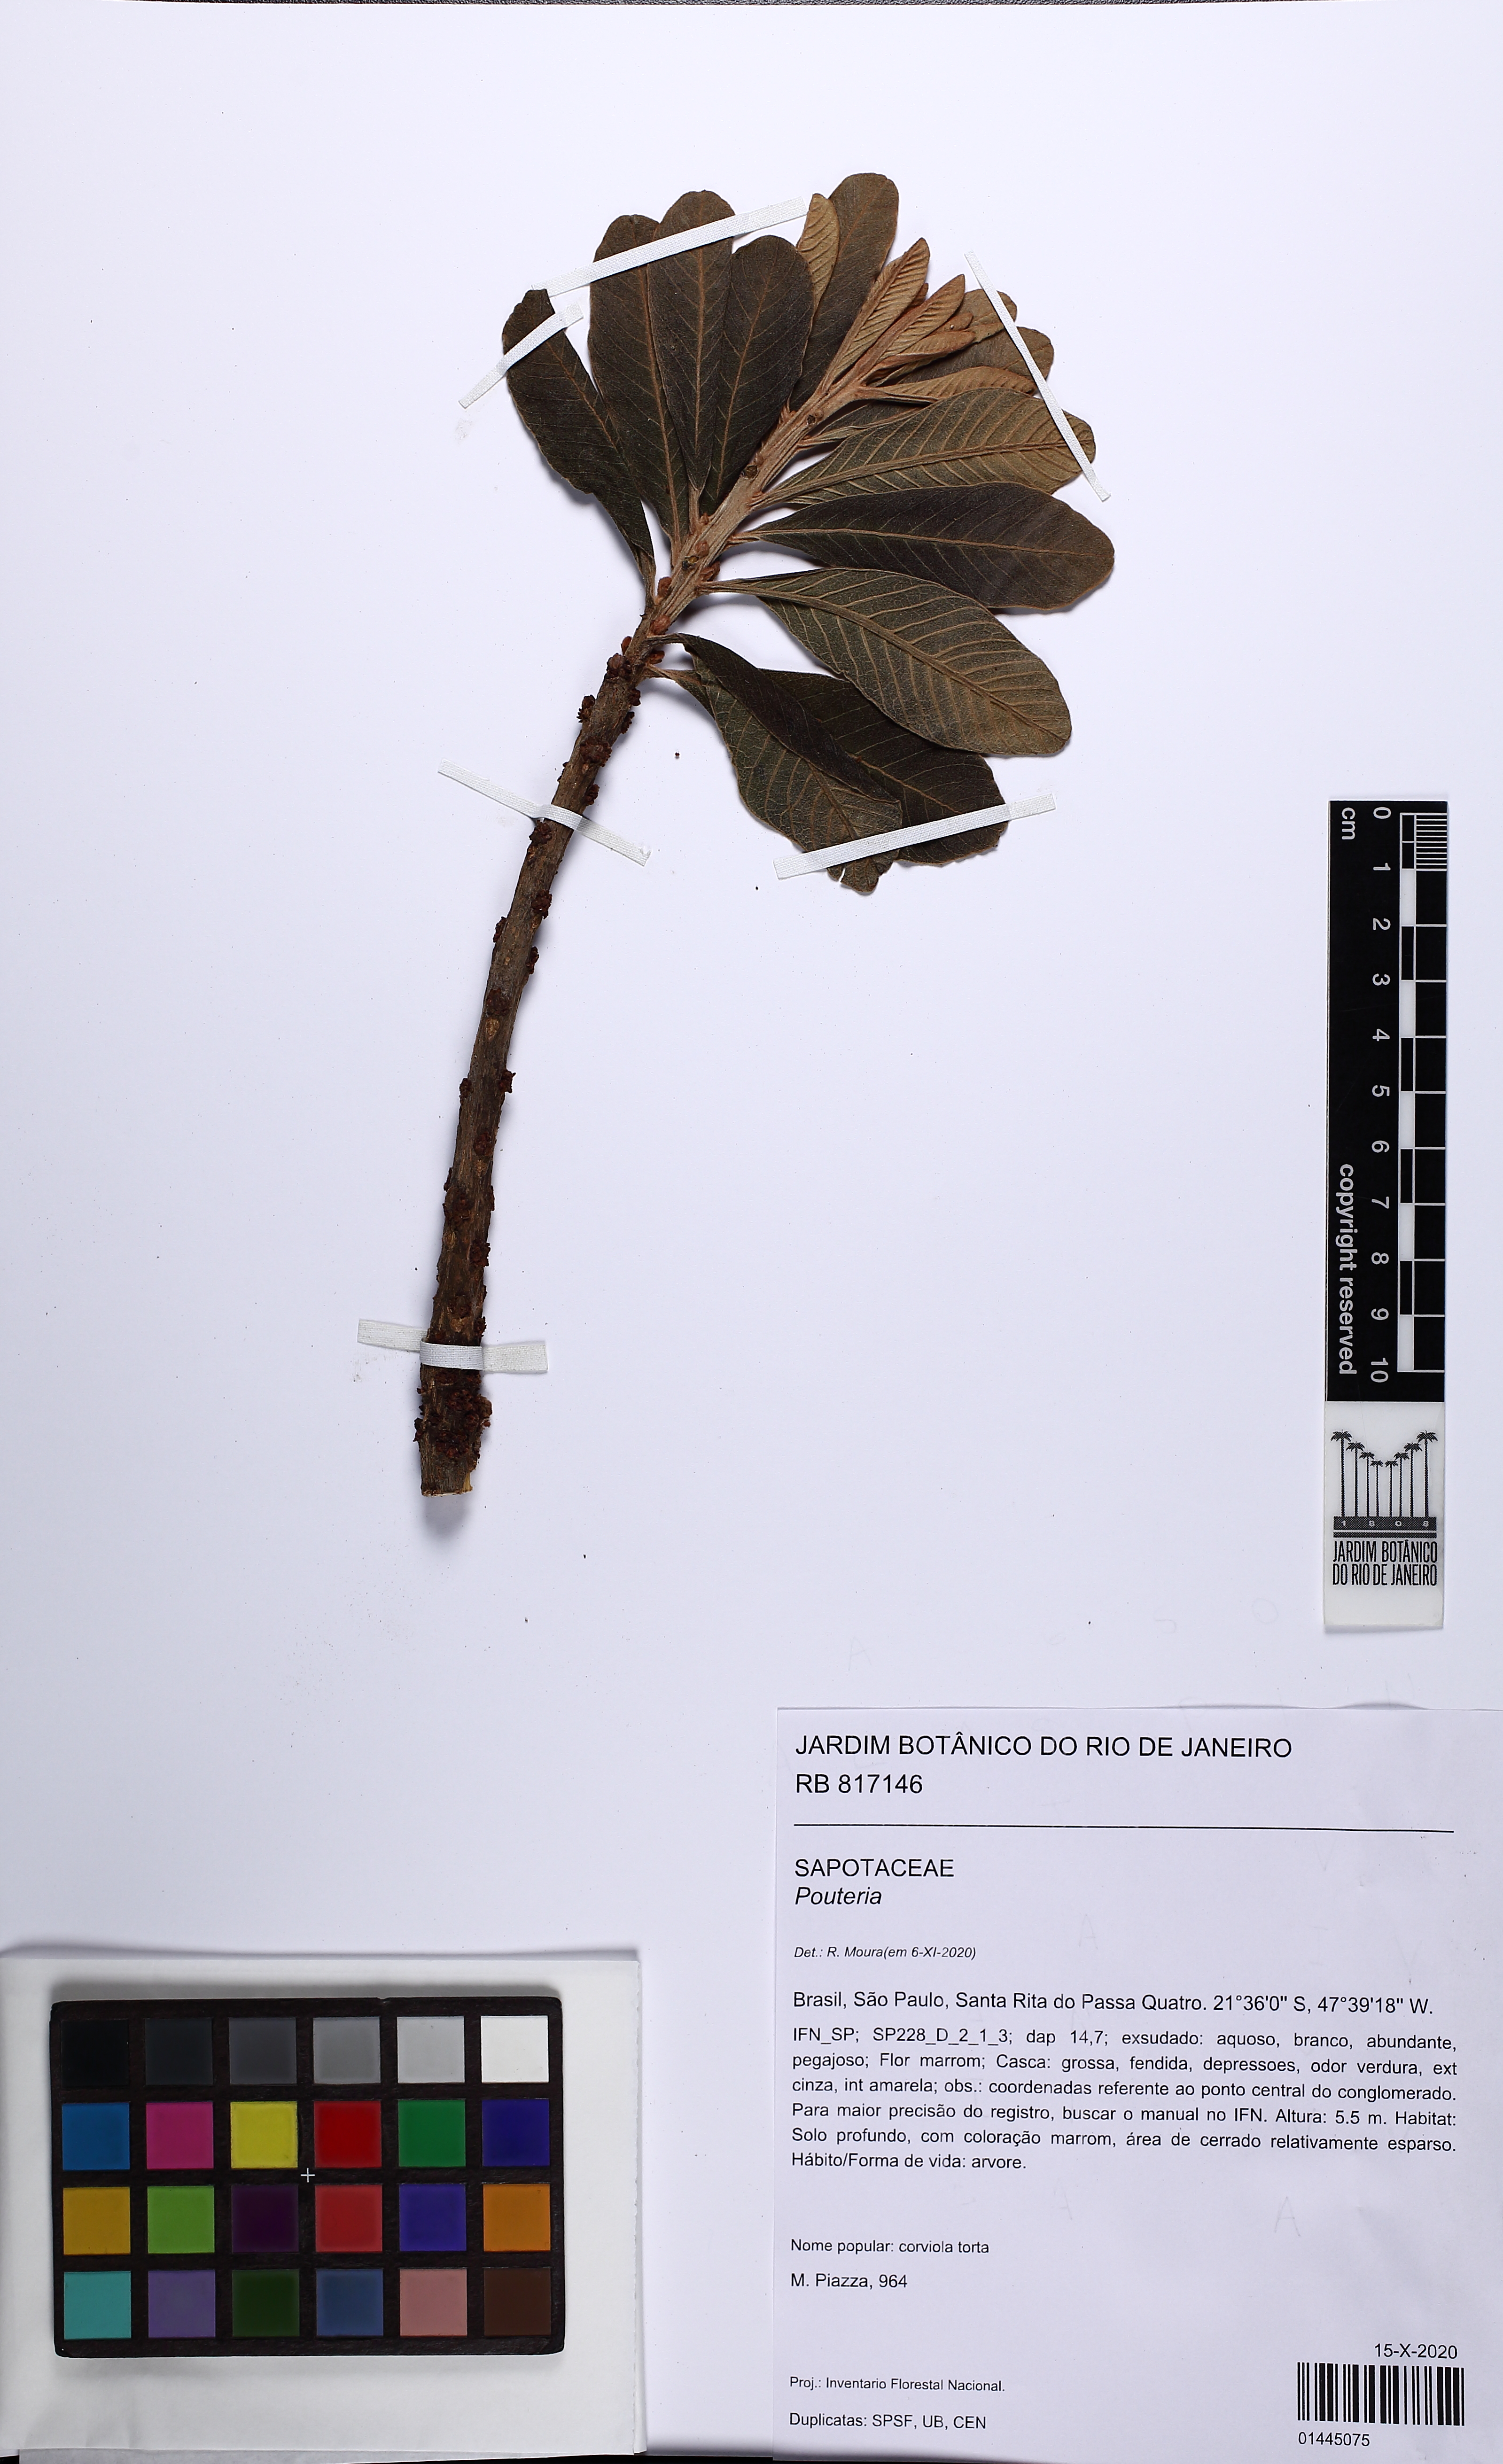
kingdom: Plantae
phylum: Tracheophyta
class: Magnoliopsida
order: Ericales
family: Sapotaceae
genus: Pouteria
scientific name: Pouteria torta
